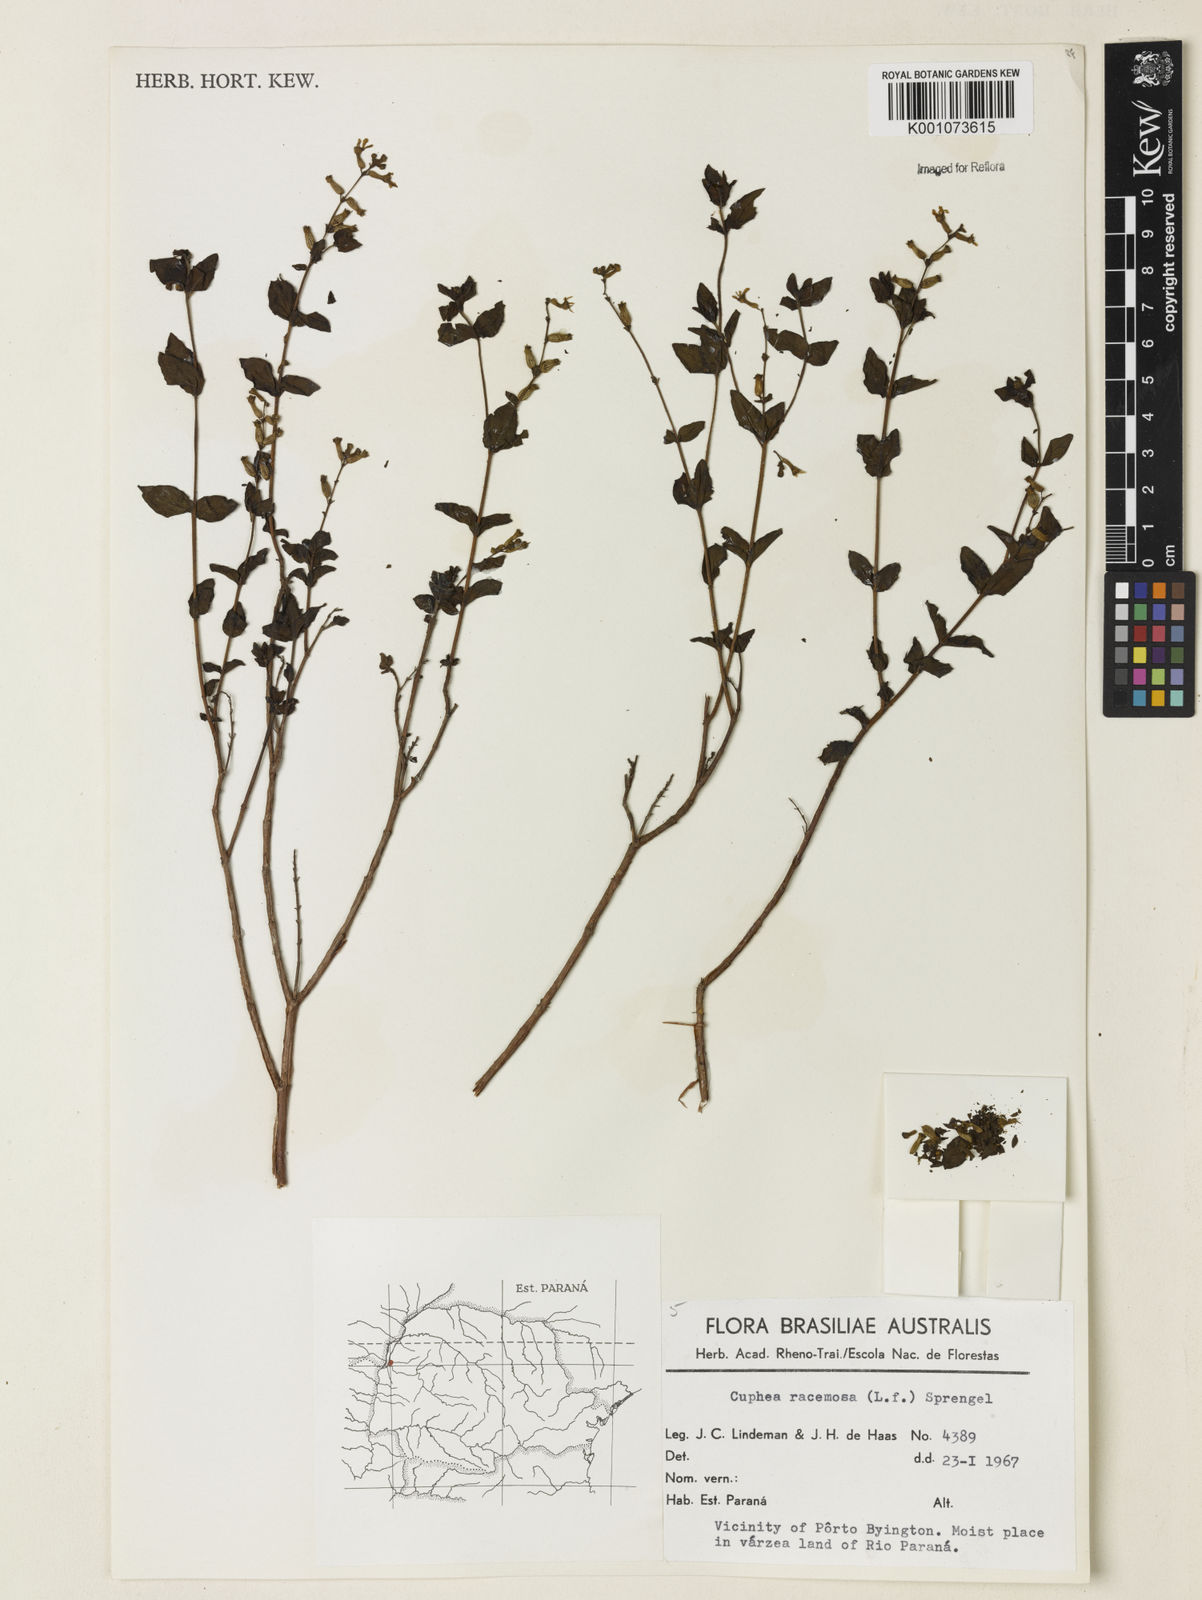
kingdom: Plantae
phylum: Tracheophyta
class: Magnoliopsida
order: Myrtales
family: Lythraceae
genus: Cuphea
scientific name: Cuphea racemosa
